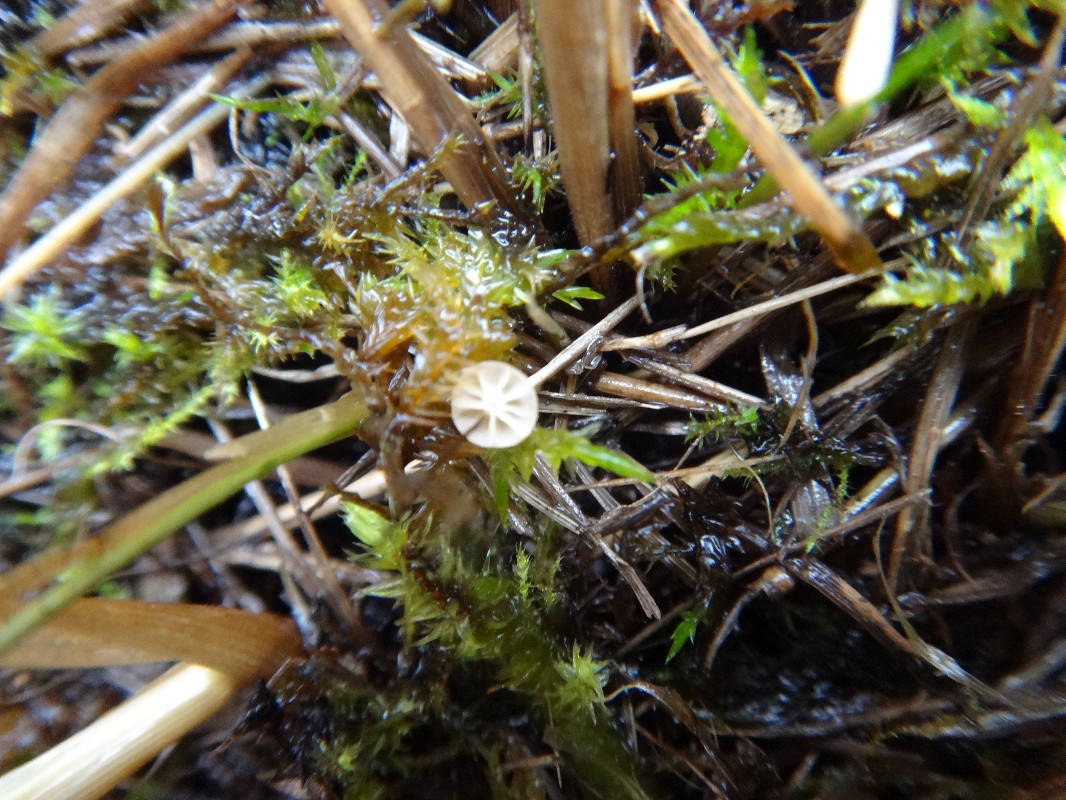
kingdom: Fungi
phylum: Basidiomycota
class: Agaricomycetes
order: Agaricales
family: Marasmiaceae
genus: Marasmius
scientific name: Marasmius limosus
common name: kær-bruskhat
